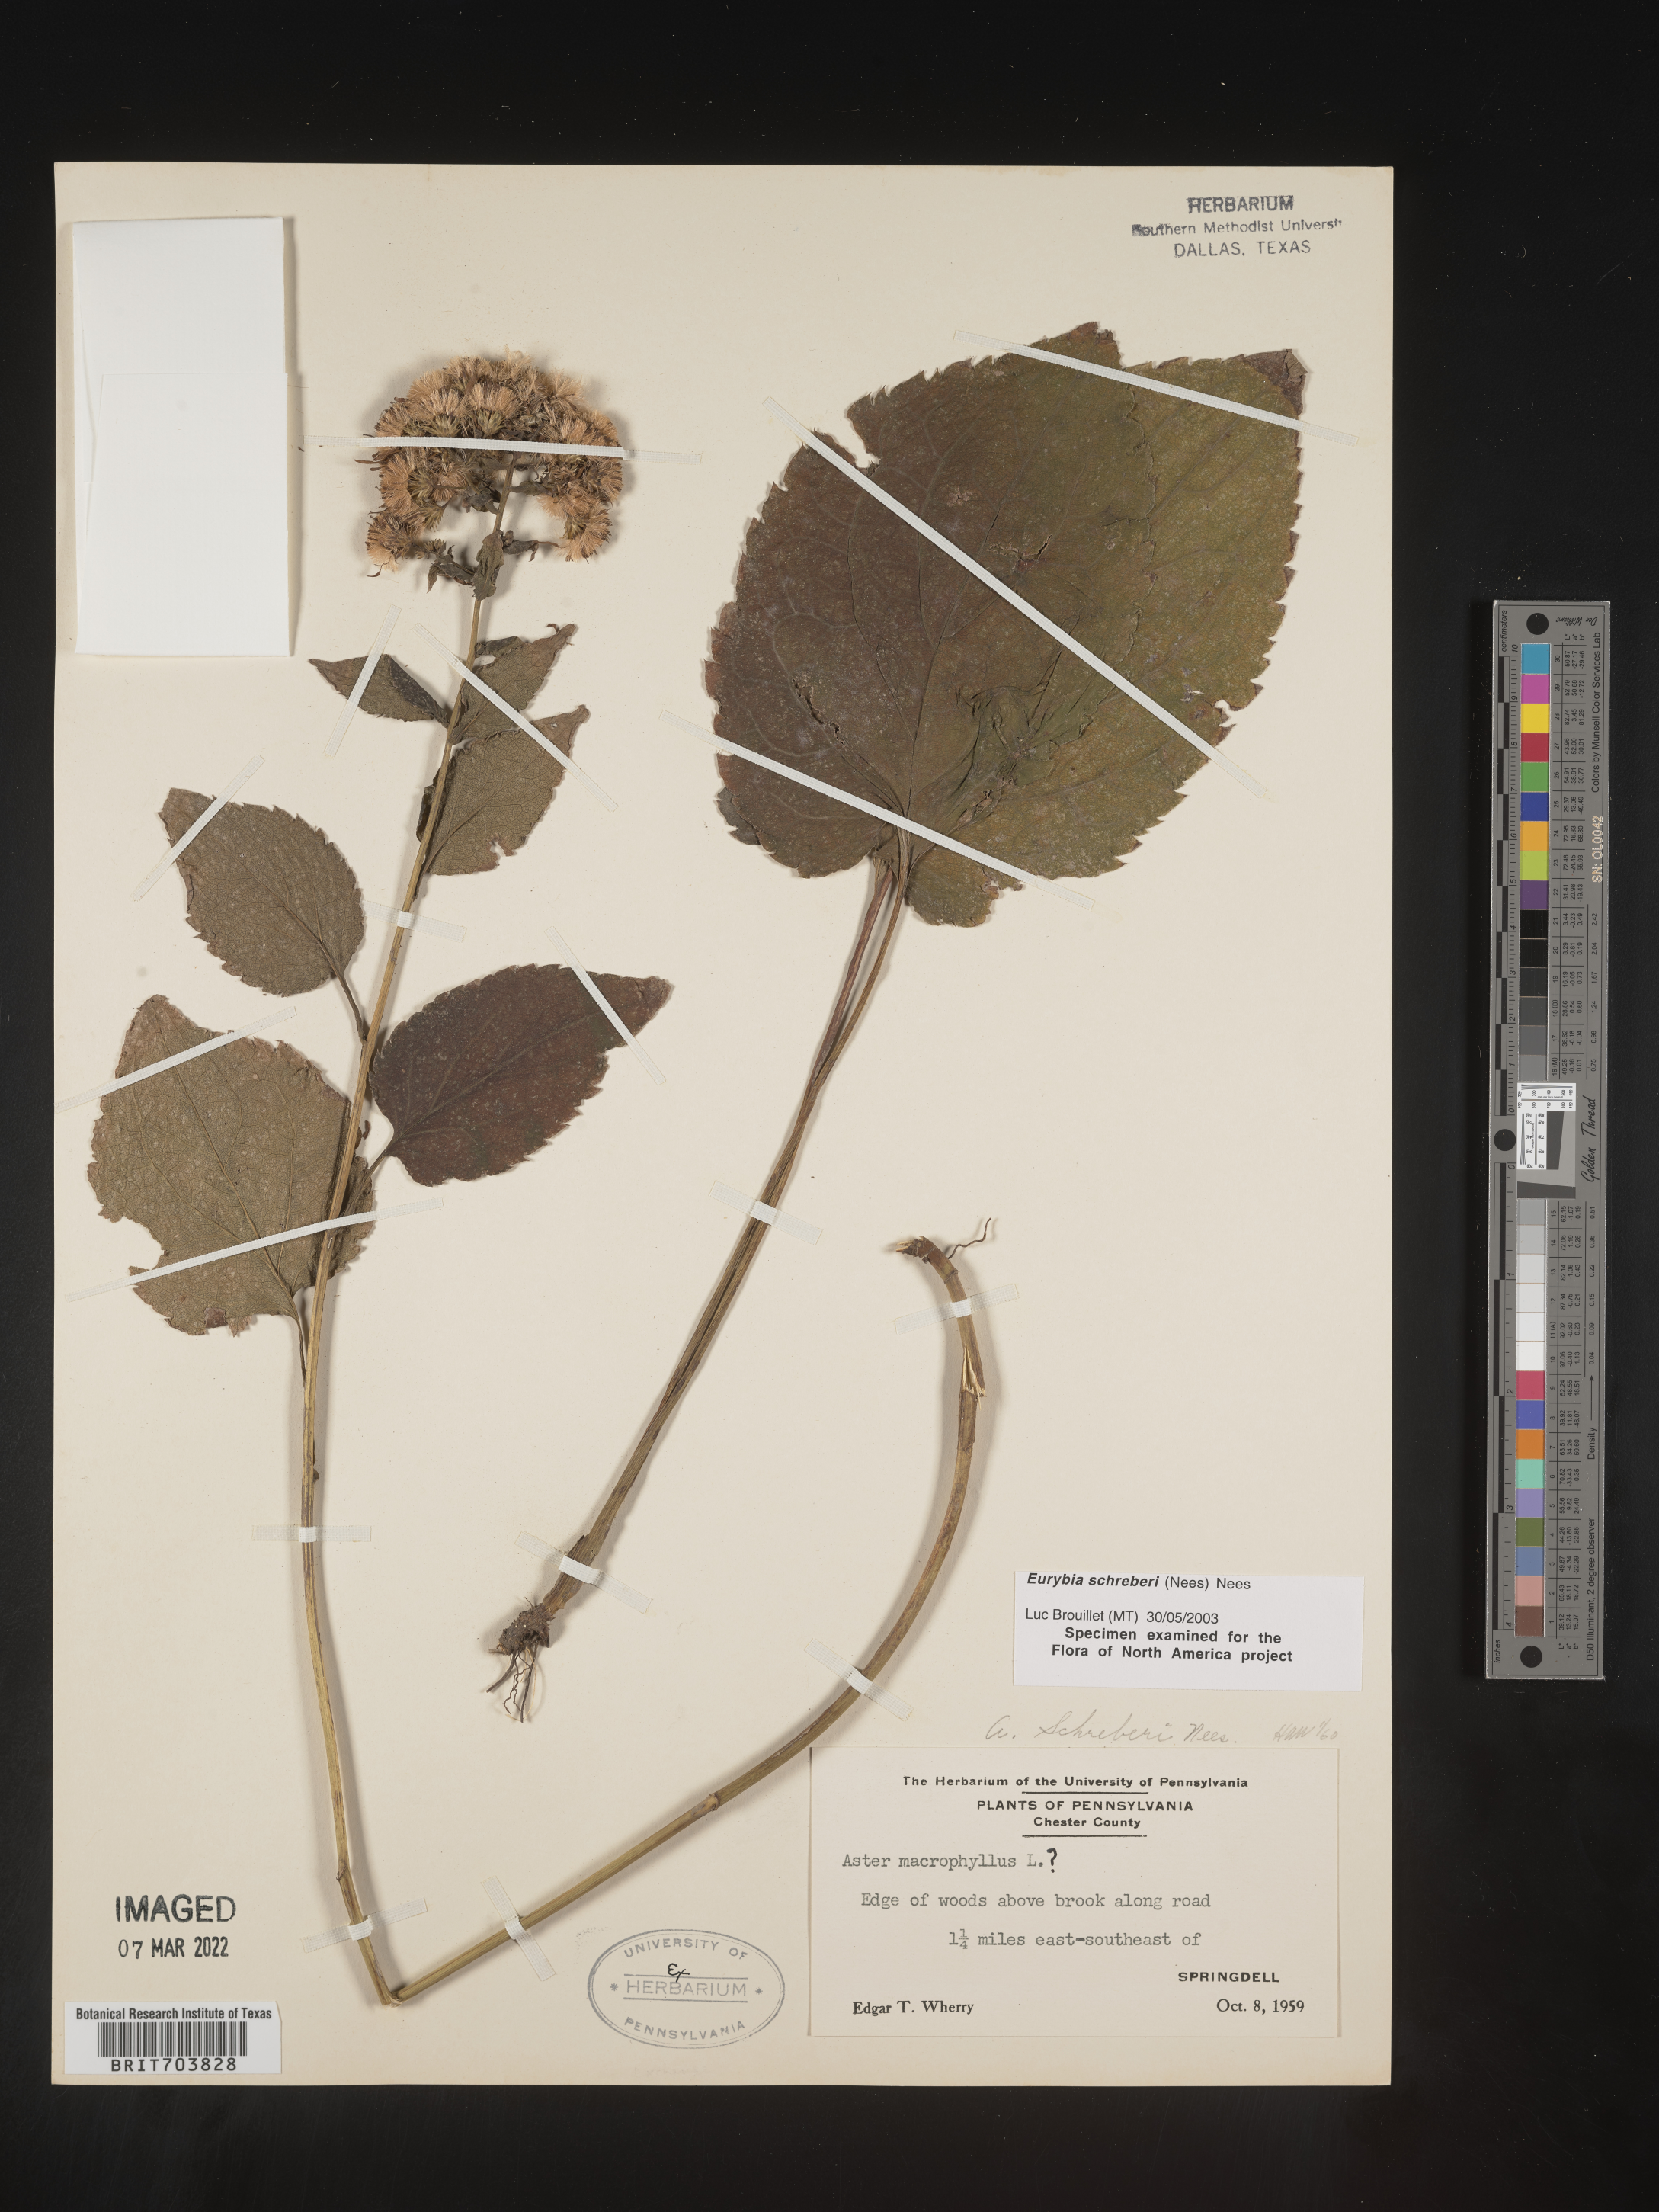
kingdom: Plantae
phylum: Tracheophyta
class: Magnoliopsida
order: Asterales
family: Asteraceae
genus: Eurybia
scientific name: Eurybia schreberi
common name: Schreber's aster
